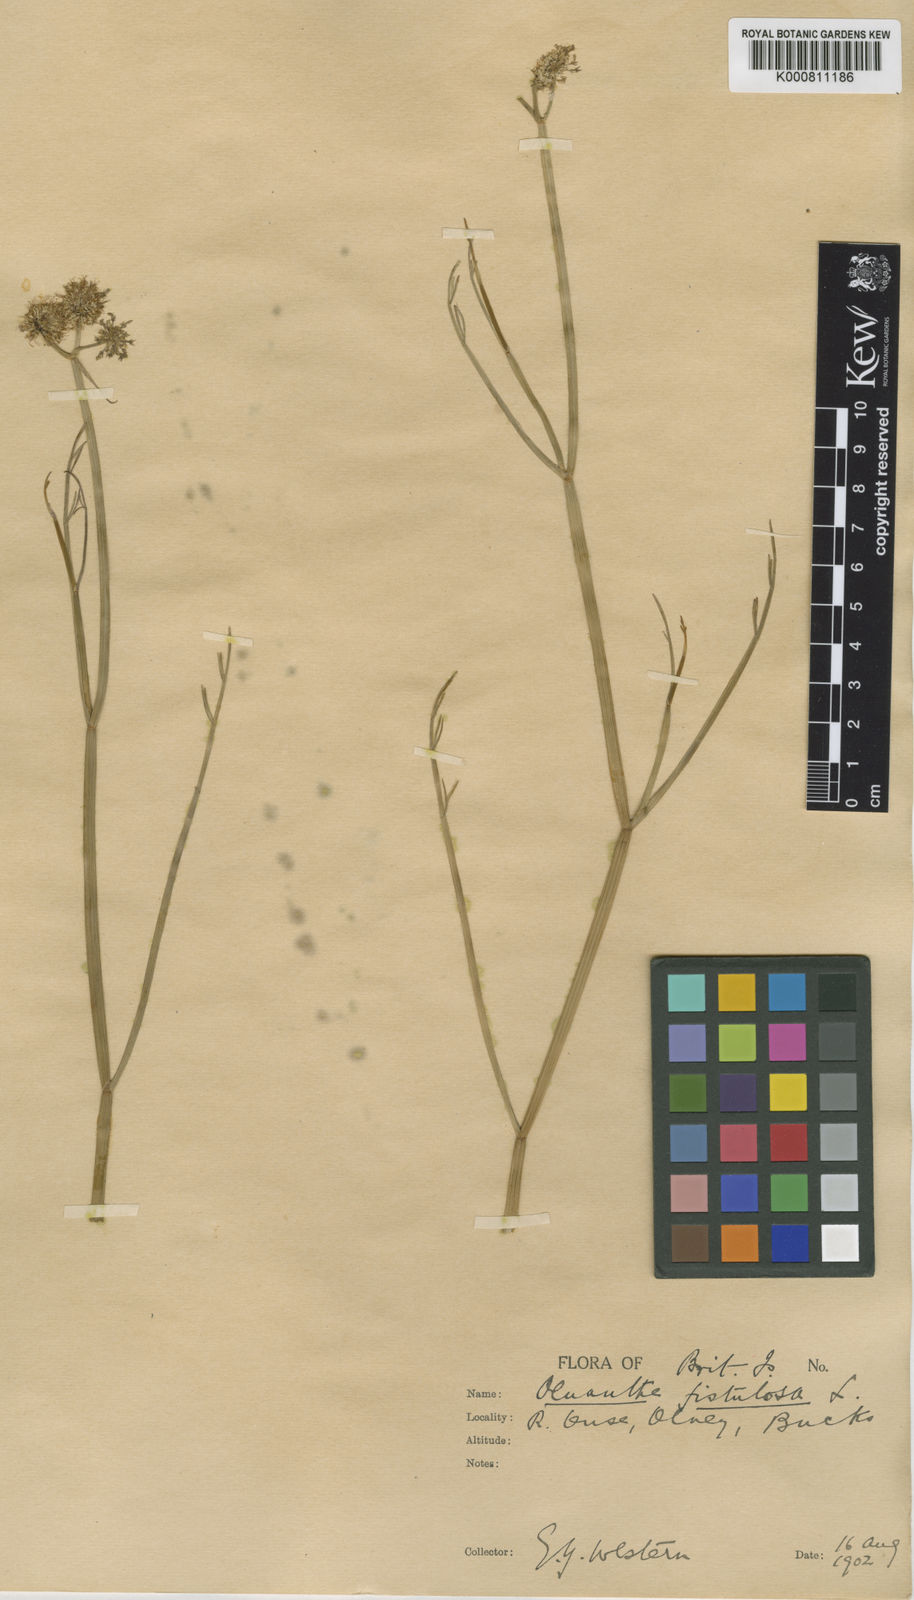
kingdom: Plantae
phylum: Tracheophyta
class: Magnoliopsida
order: Apiales
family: Apiaceae
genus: Oenanthe
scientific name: Oenanthe fistulosa
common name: Tubular water-dropwort
